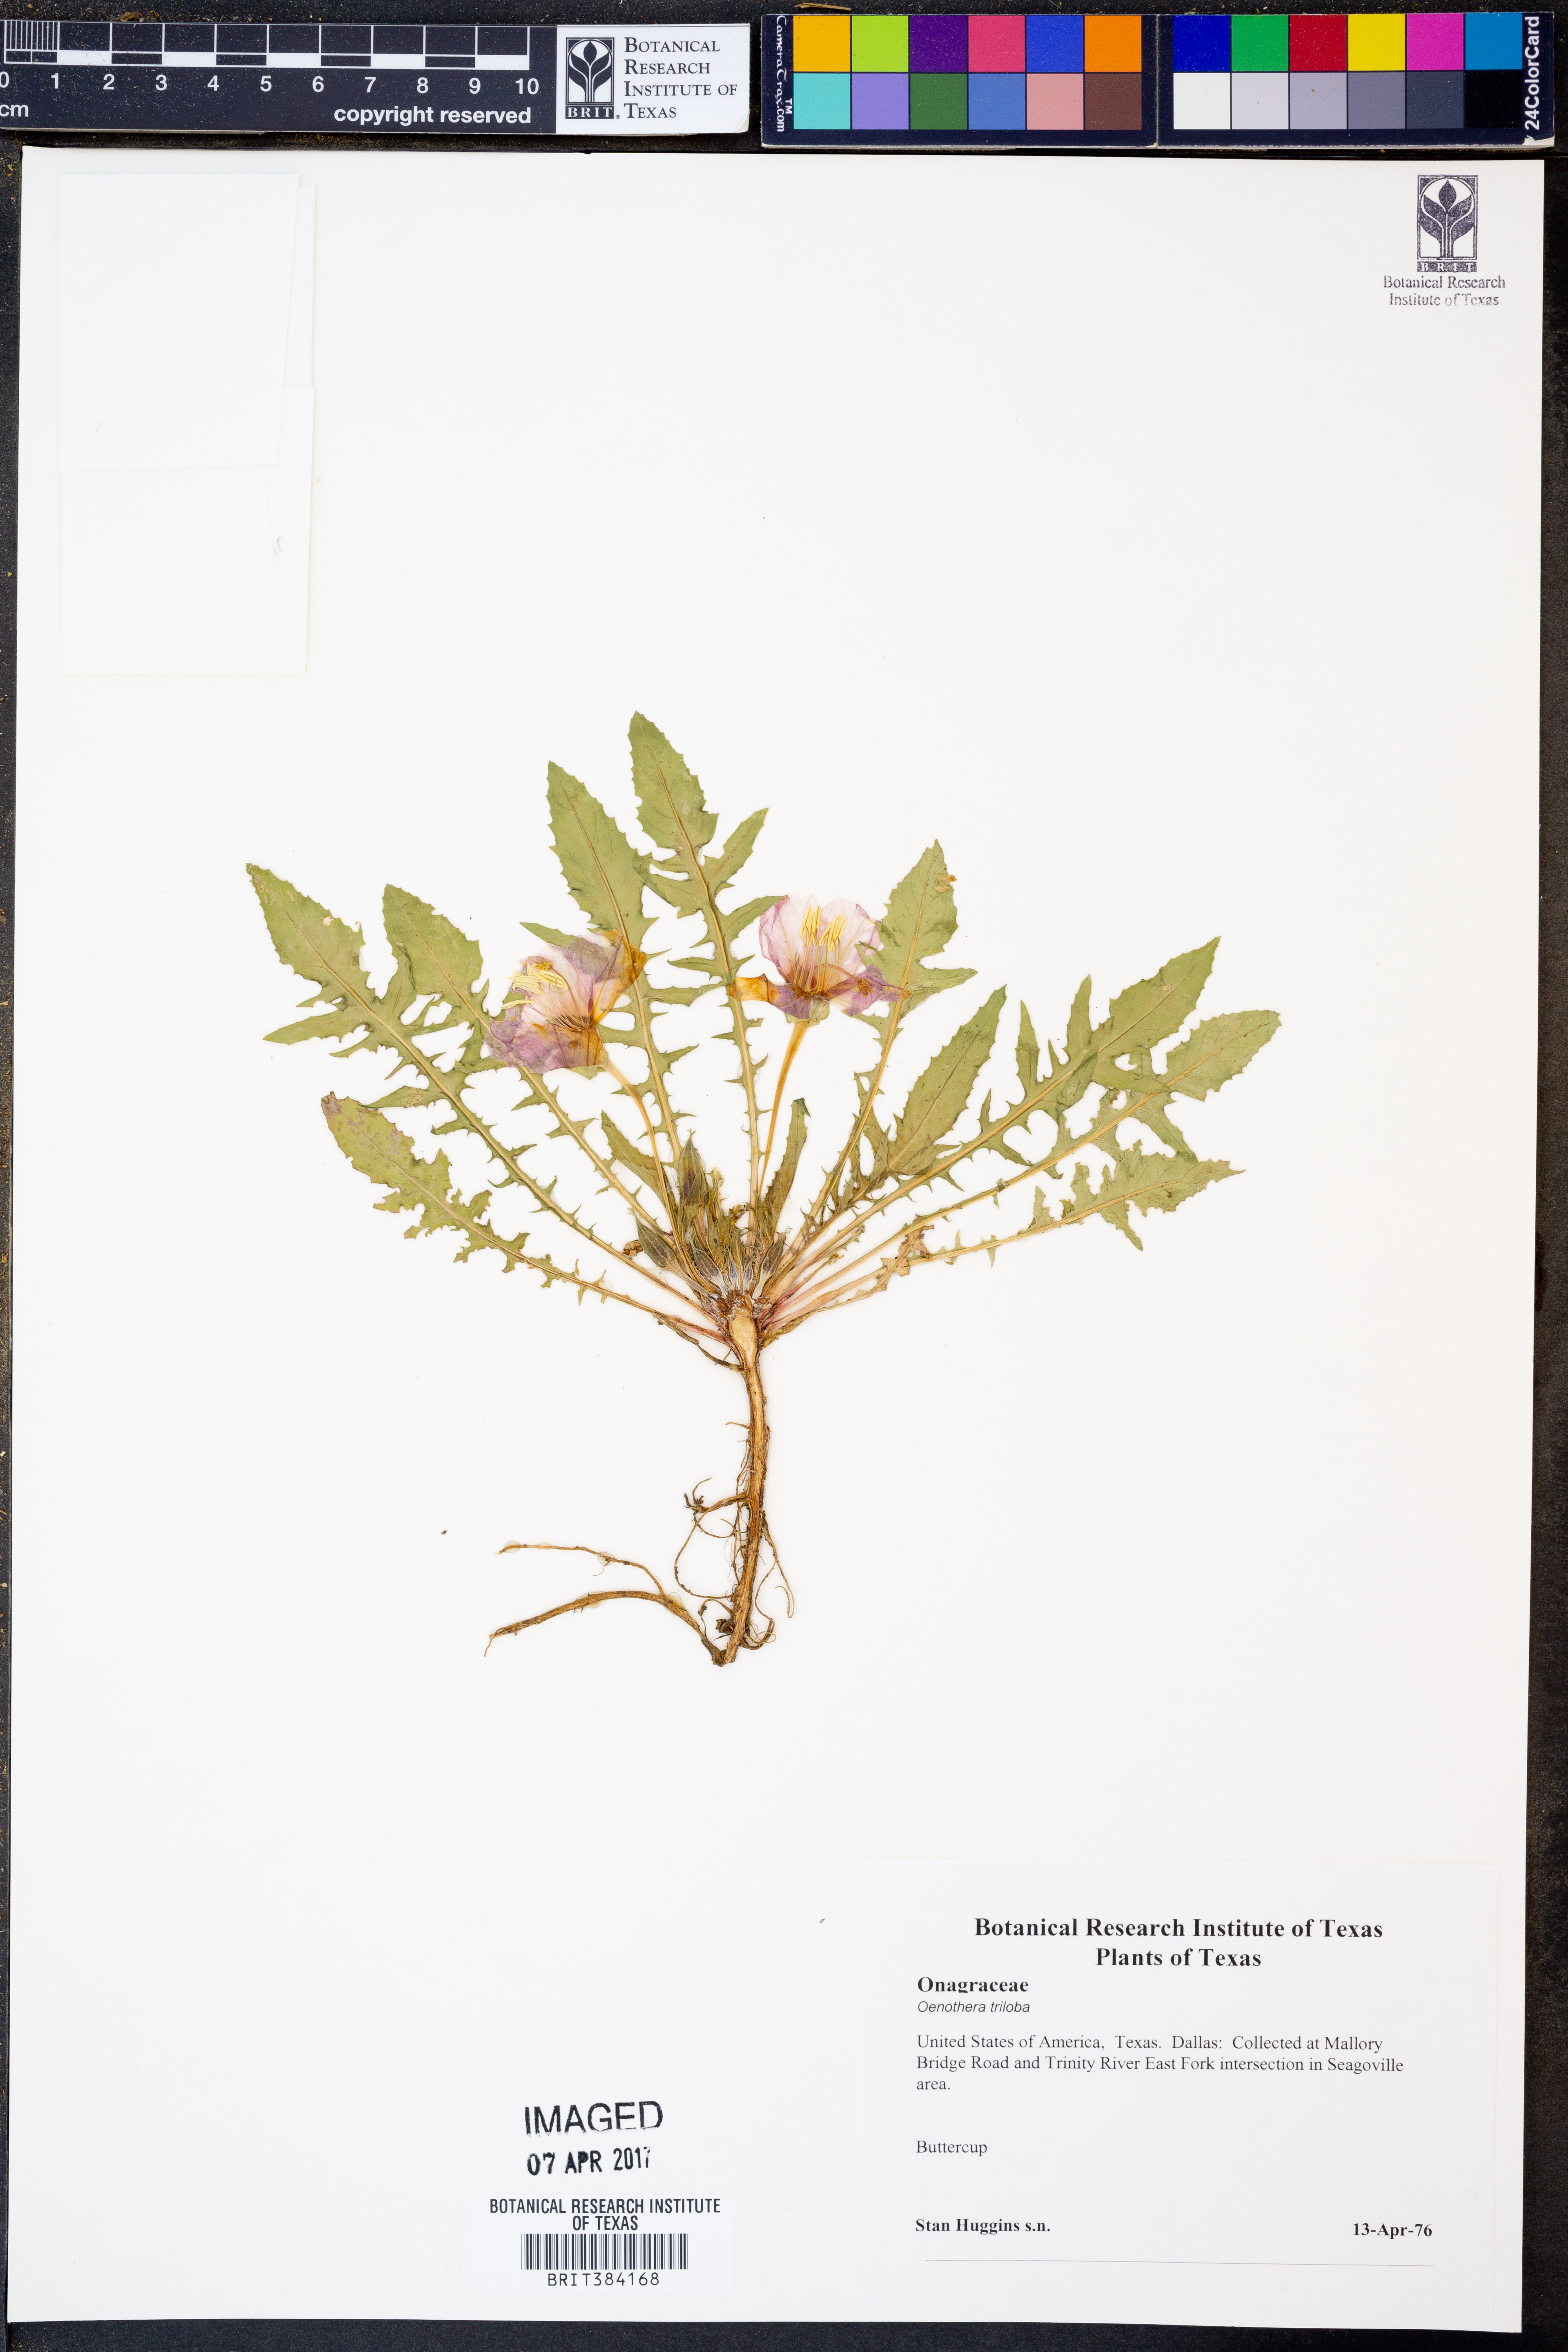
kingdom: Plantae
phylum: Tracheophyta
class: Magnoliopsida
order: Myrtales
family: Onagraceae
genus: Oenothera
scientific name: Oenothera triloba
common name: Sessile evening-primrose
